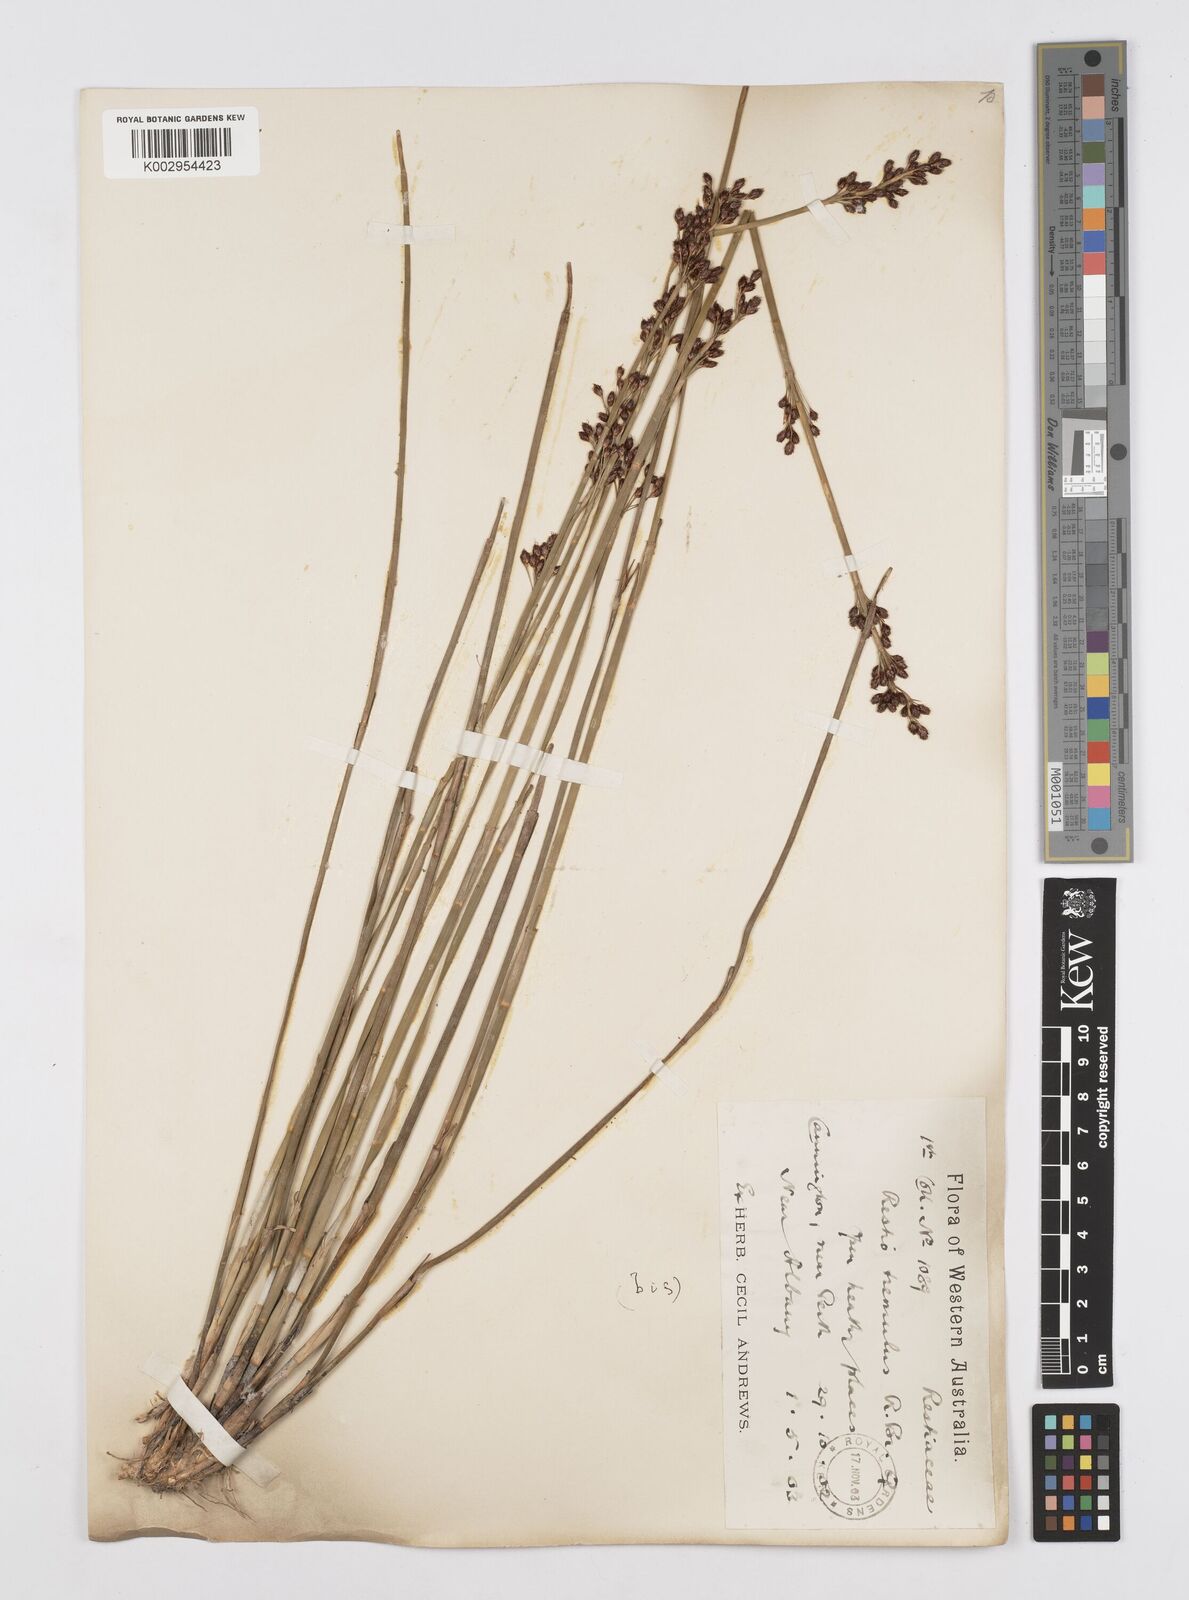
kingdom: Plantae
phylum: Tracheophyta
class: Liliopsida
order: Poales
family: Restionaceae
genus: Tremulina
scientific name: Tremulina tremula
